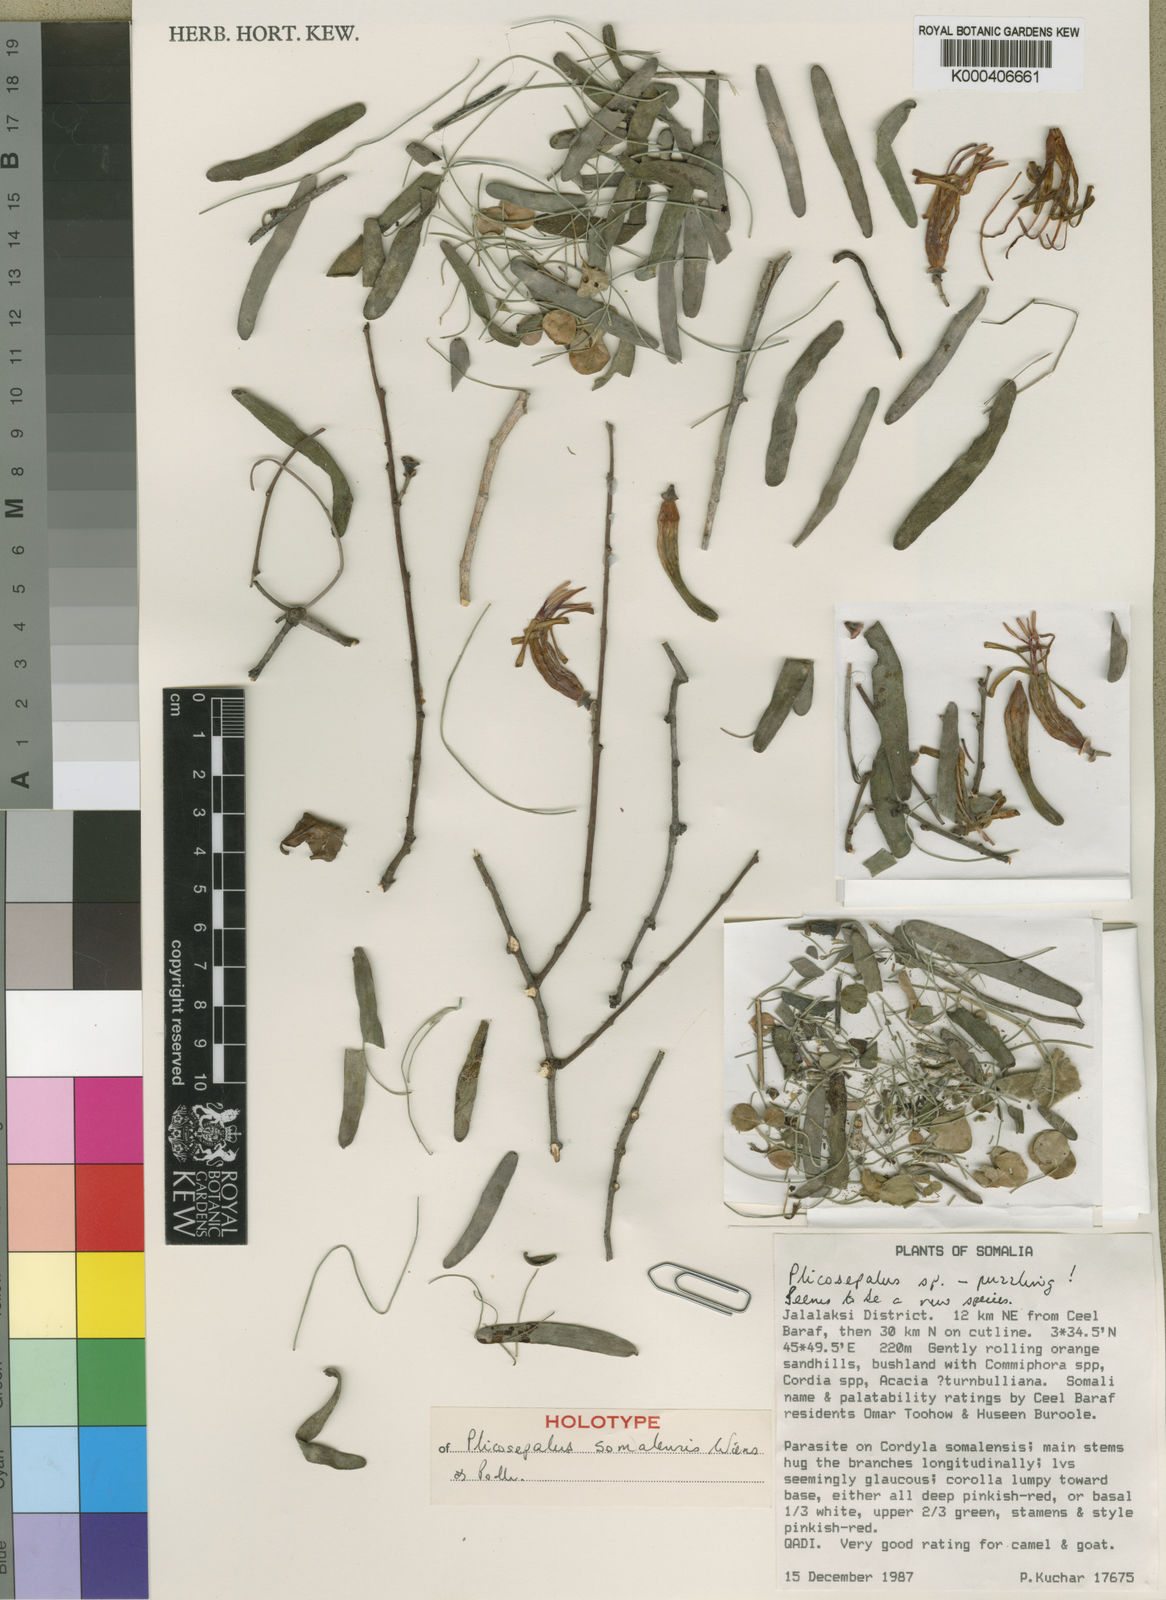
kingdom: Plantae
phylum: Tracheophyta
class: Magnoliopsida
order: Santalales
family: Loranthaceae
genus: Plicosepalus
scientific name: Plicosepalus somalensis
